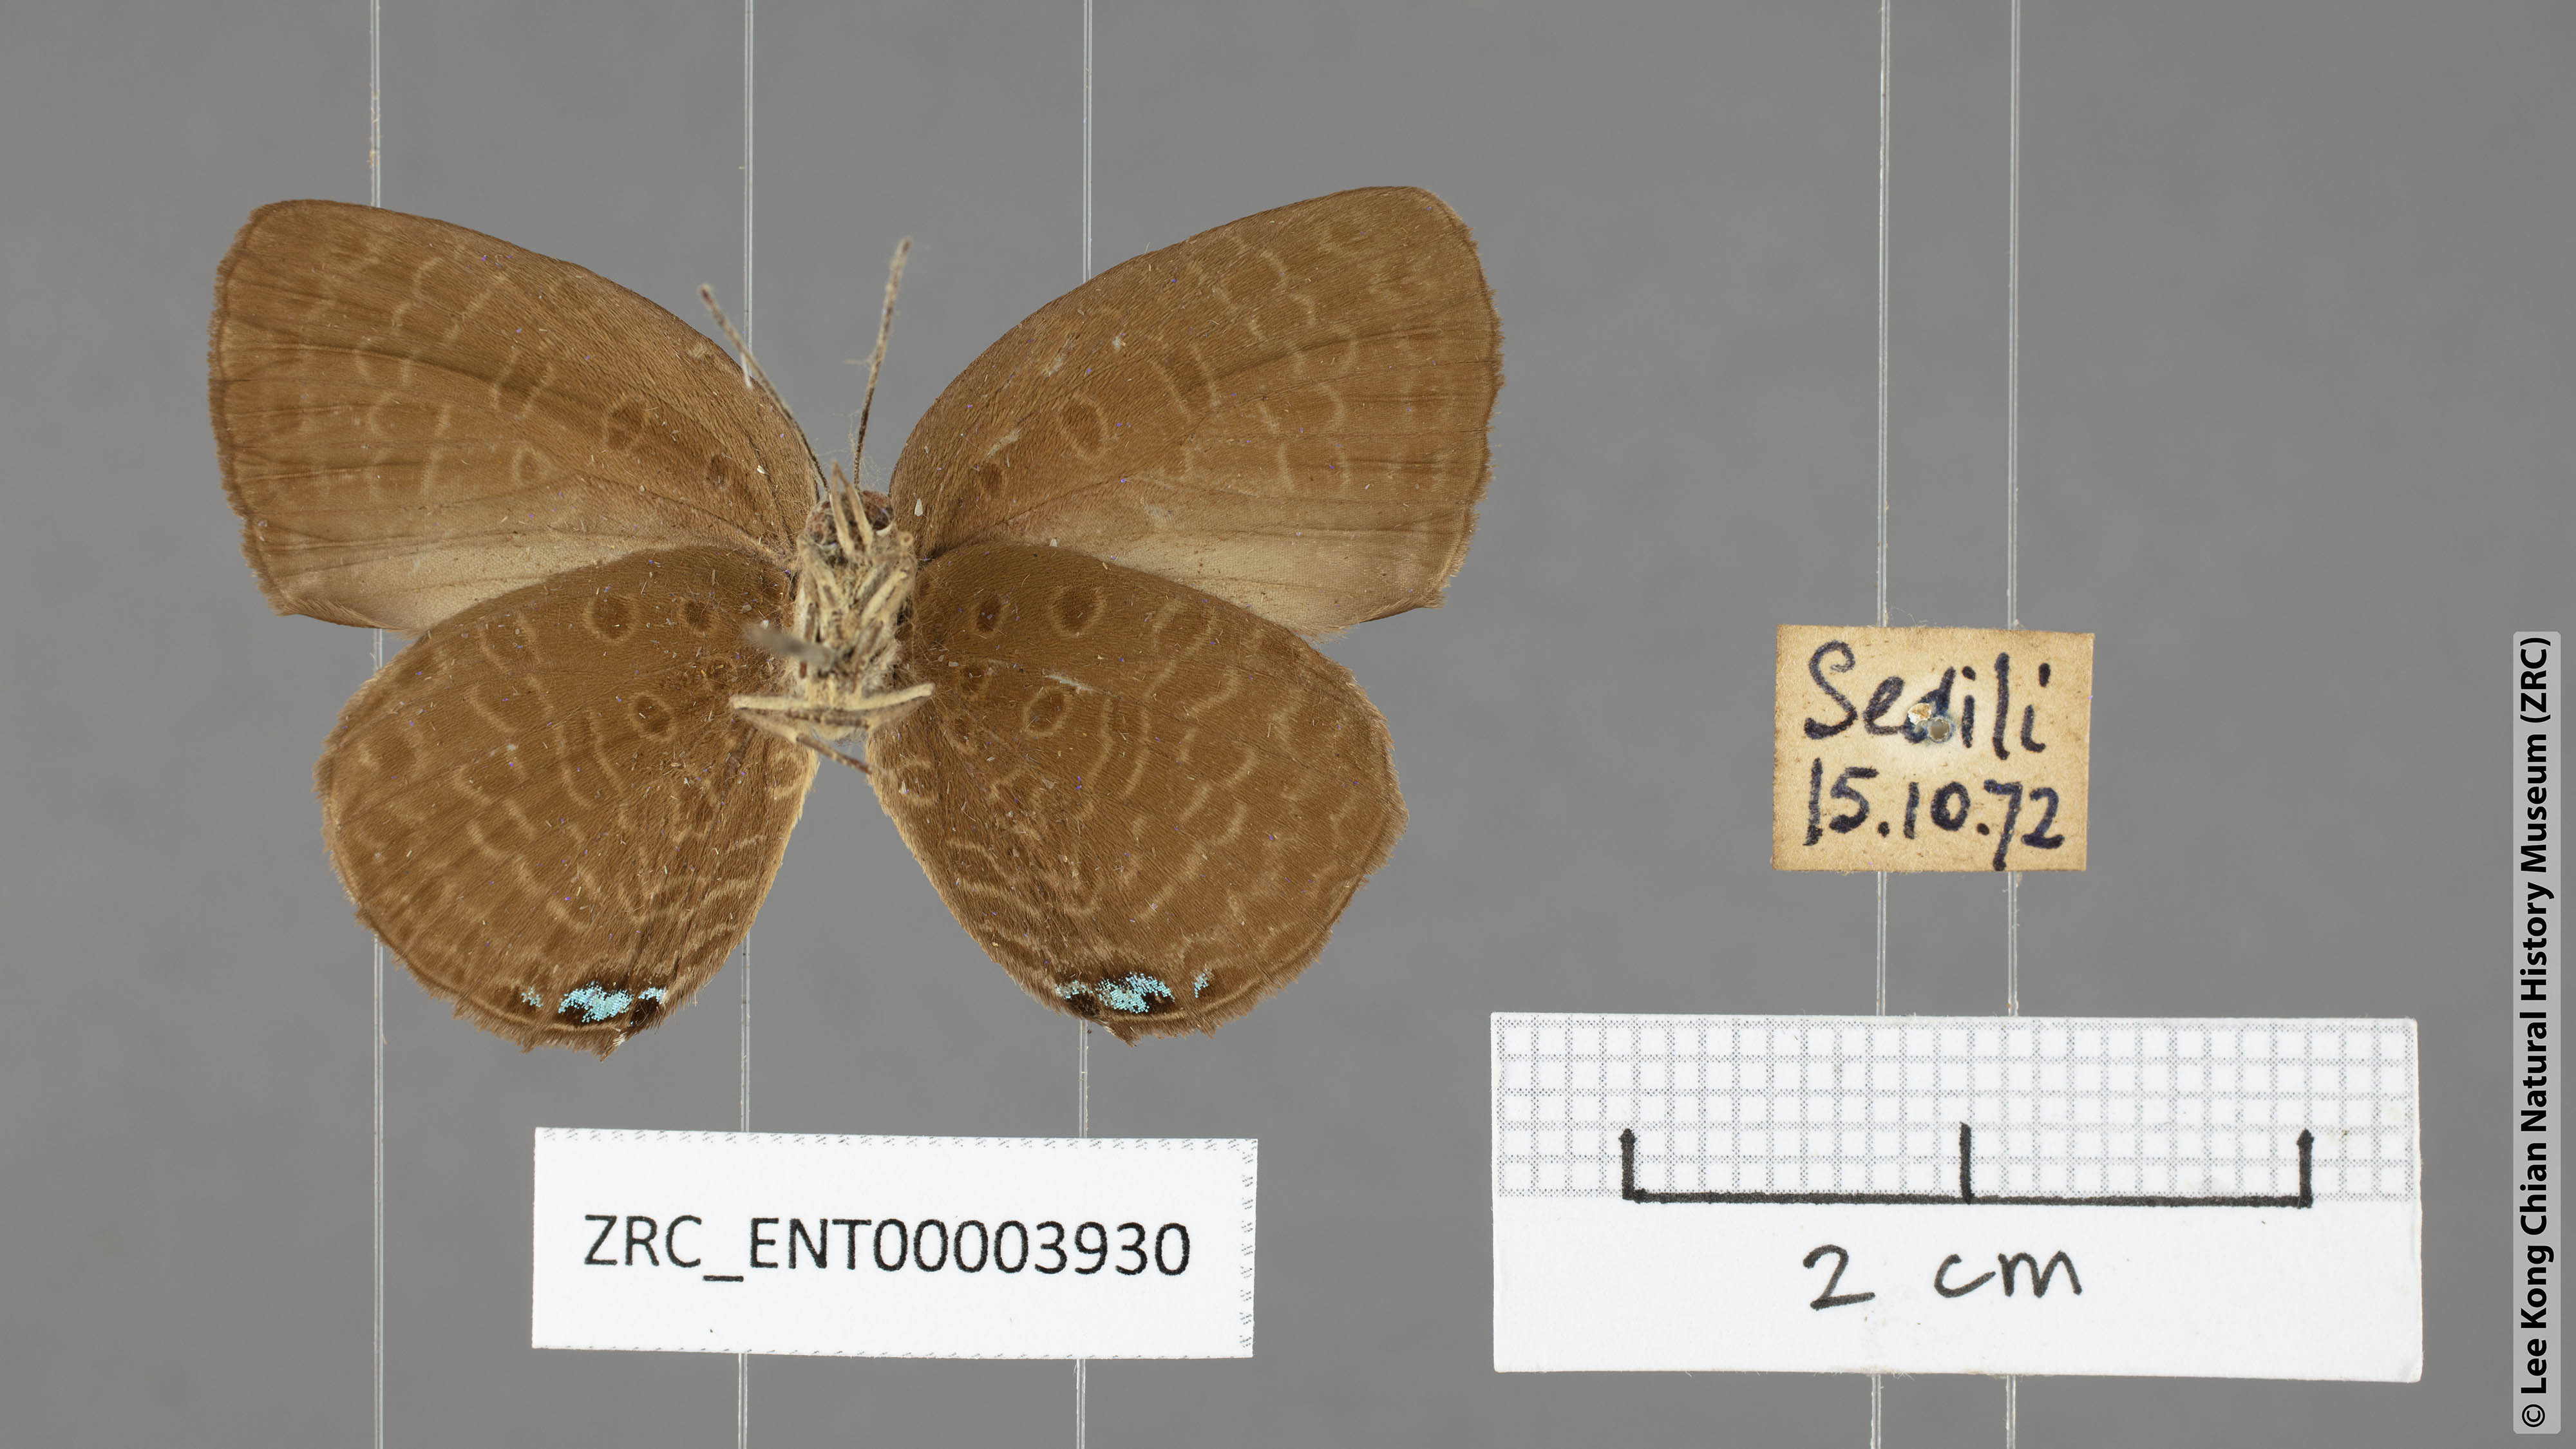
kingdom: Animalia
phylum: Arthropoda
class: Insecta
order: Lepidoptera
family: Lycaenidae
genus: Arhopala
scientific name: Arhopala epimuta
